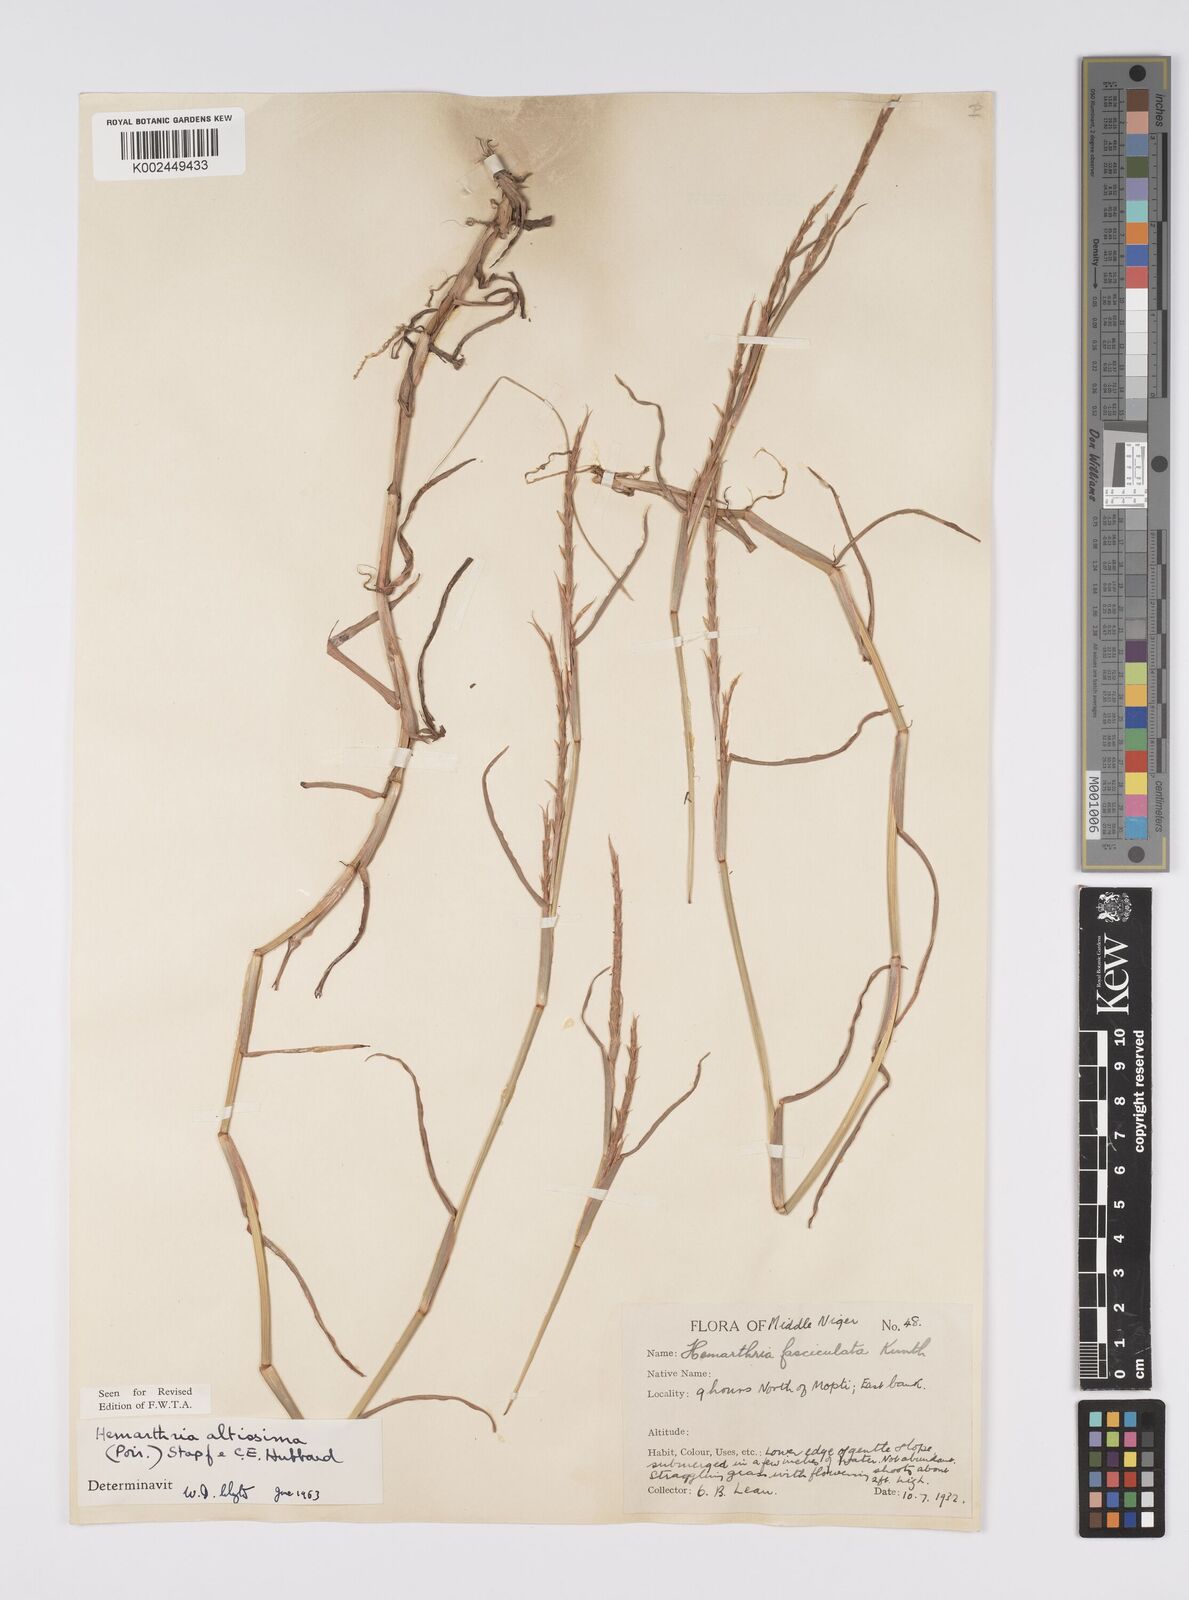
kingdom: Plantae
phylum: Tracheophyta
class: Liliopsida
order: Poales
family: Poaceae
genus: Hemarthria
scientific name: Hemarthria altissima
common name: African jointgrass
